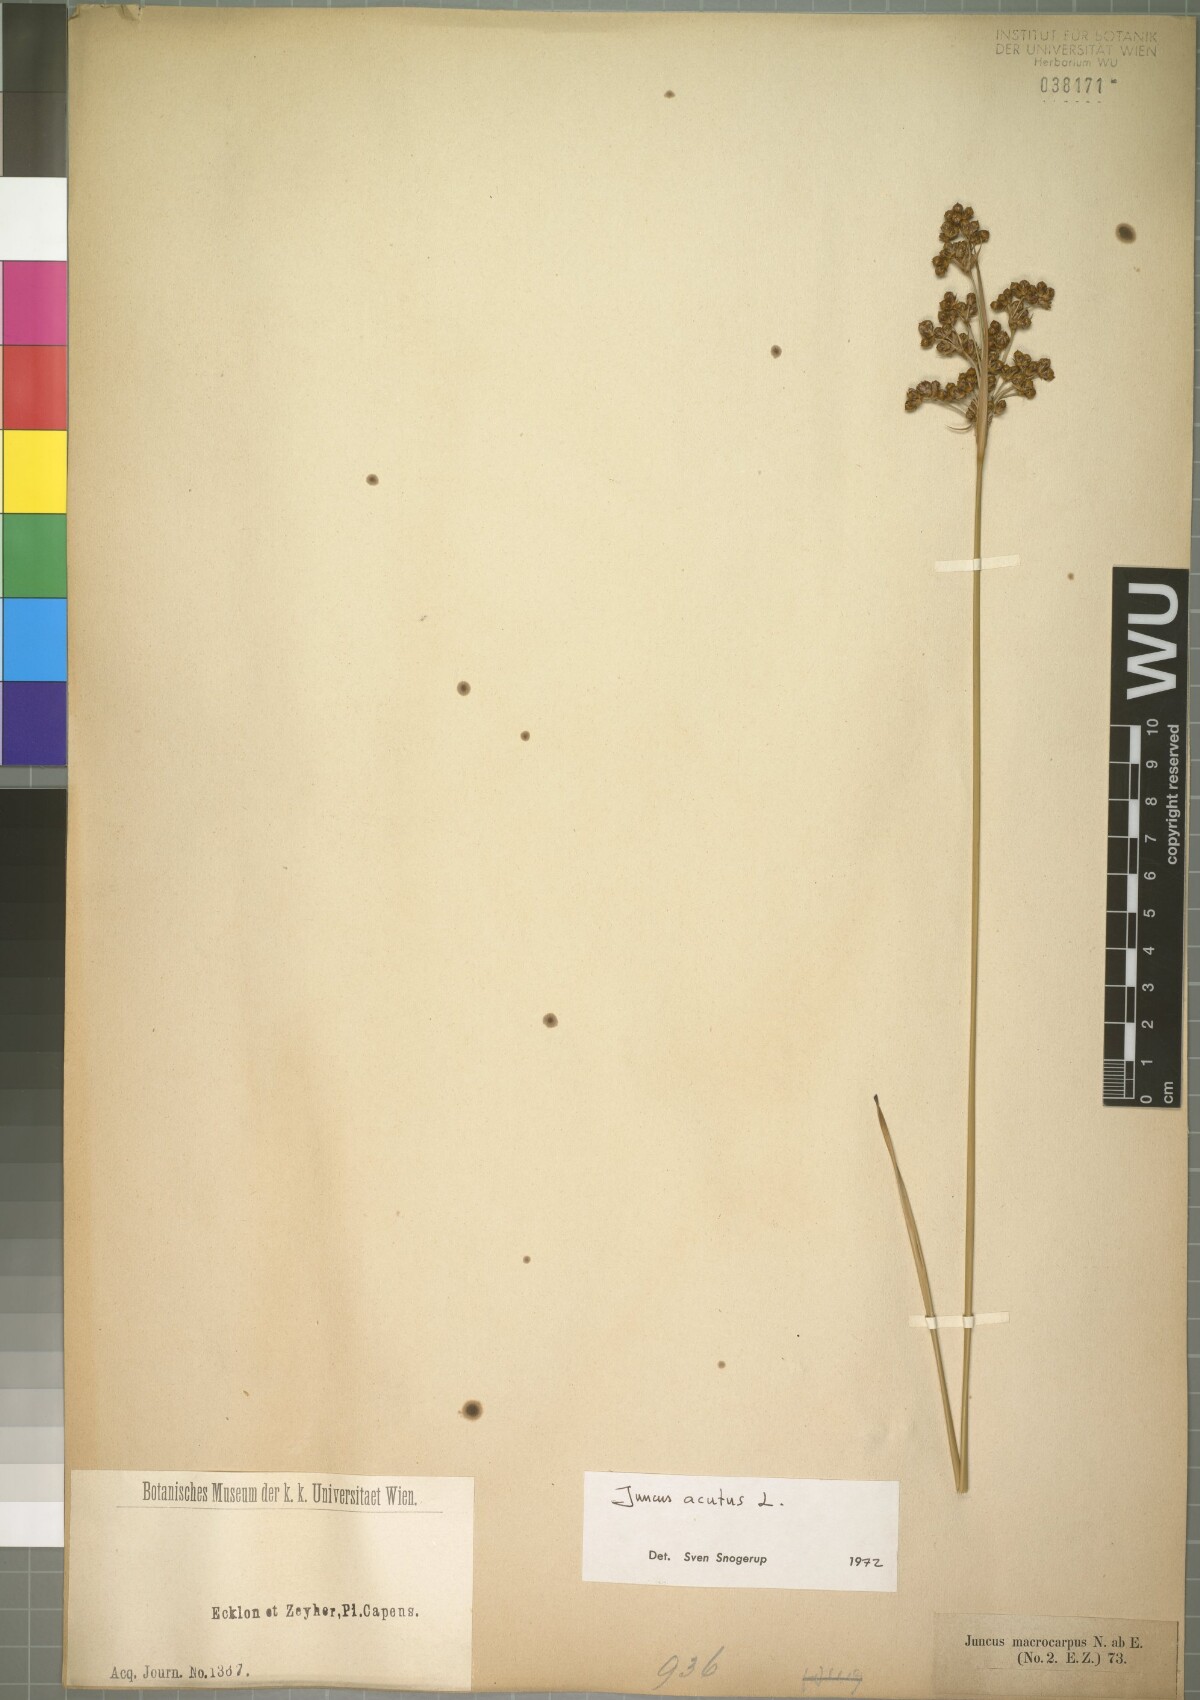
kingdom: Plantae
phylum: Tracheophyta
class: Liliopsida
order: Poales
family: Juncaceae
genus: Juncus
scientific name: Juncus acutus
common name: Sharp rush
